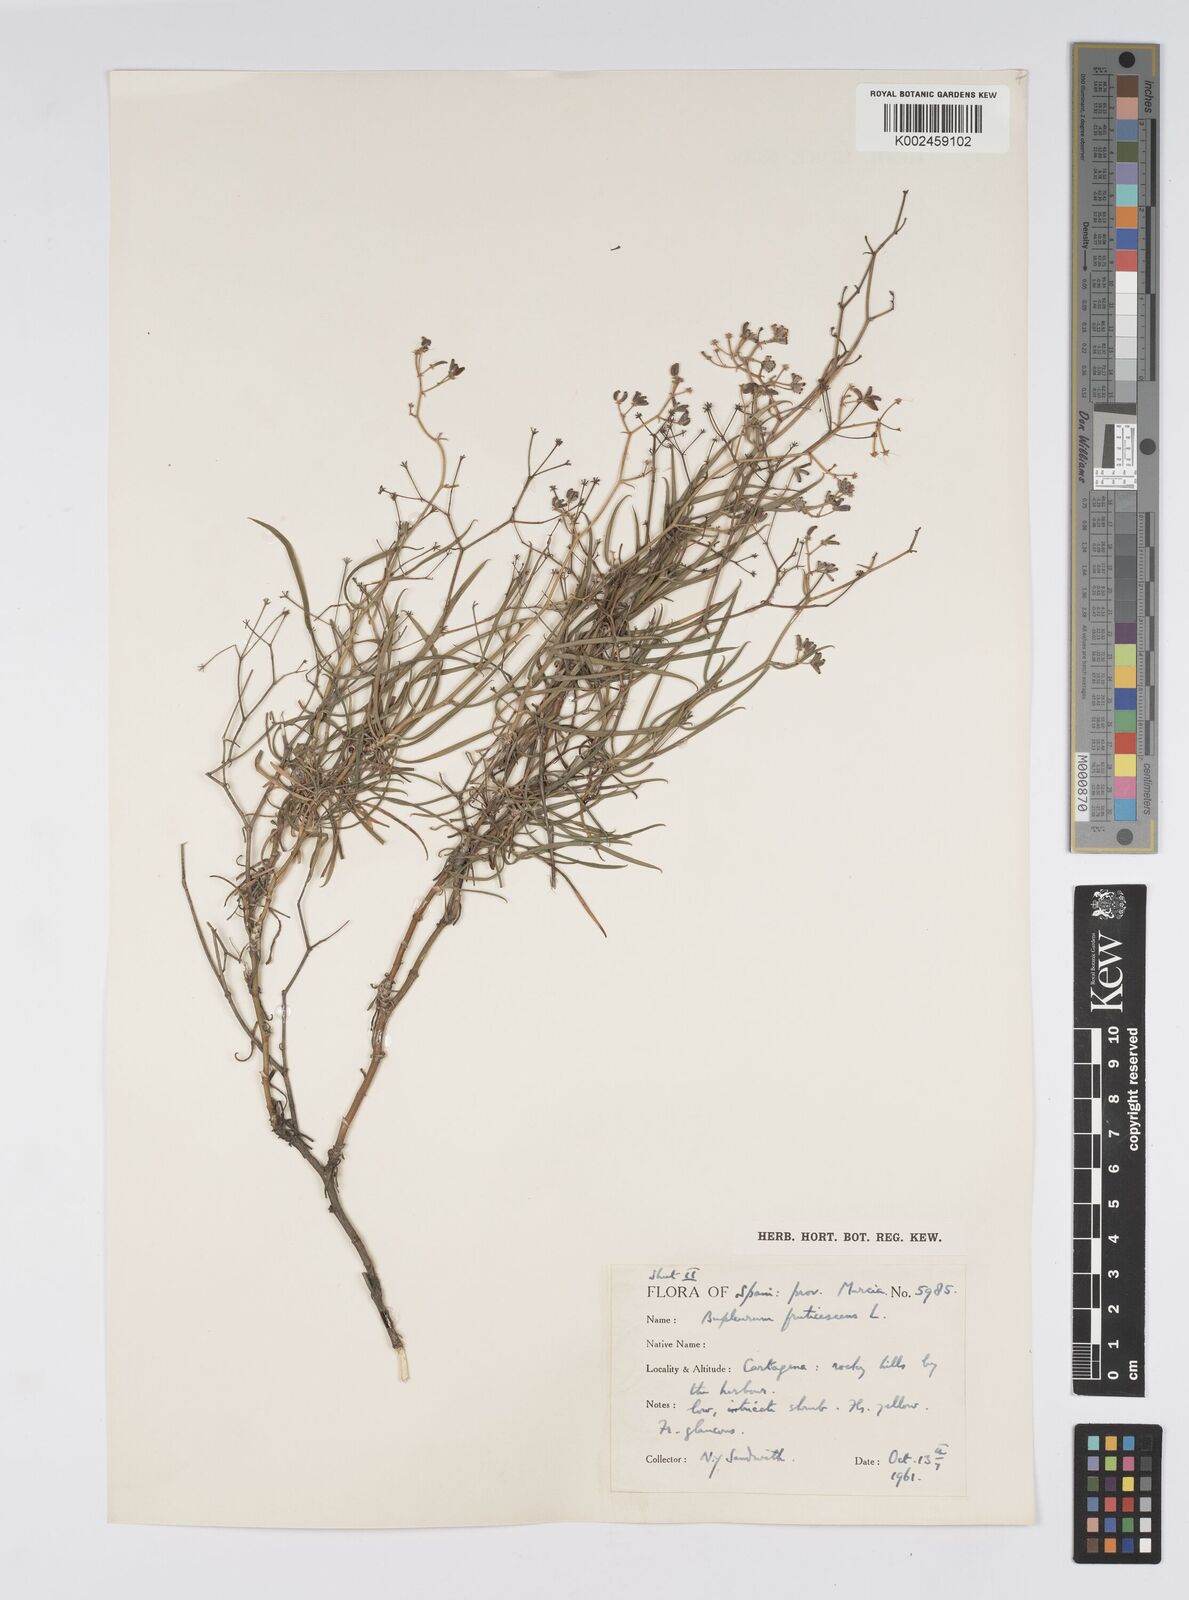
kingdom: Plantae
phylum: Tracheophyta
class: Magnoliopsida
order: Apiales
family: Apiaceae
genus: Bupleurum
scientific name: Bupleurum fruticescens
